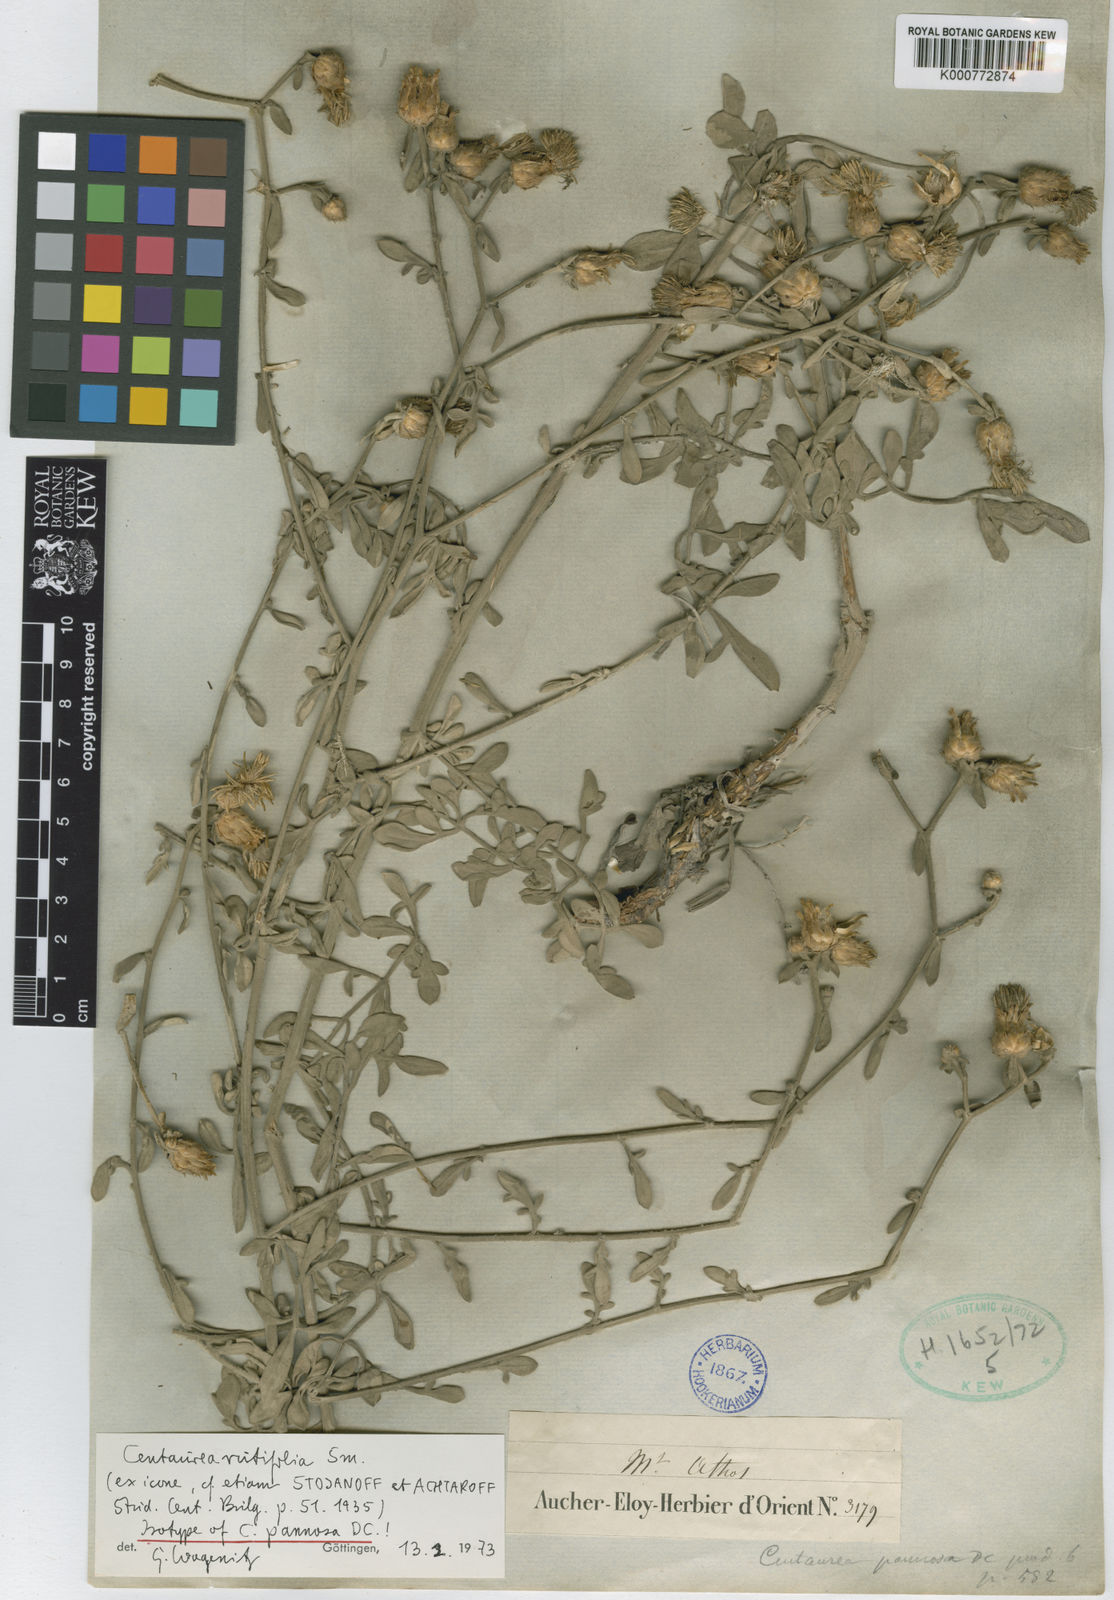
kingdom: Plantae
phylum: Tracheophyta
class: Magnoliopsida
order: Asterales
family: Asteraceae
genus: Centaurea
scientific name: Centaurea rutifolia
